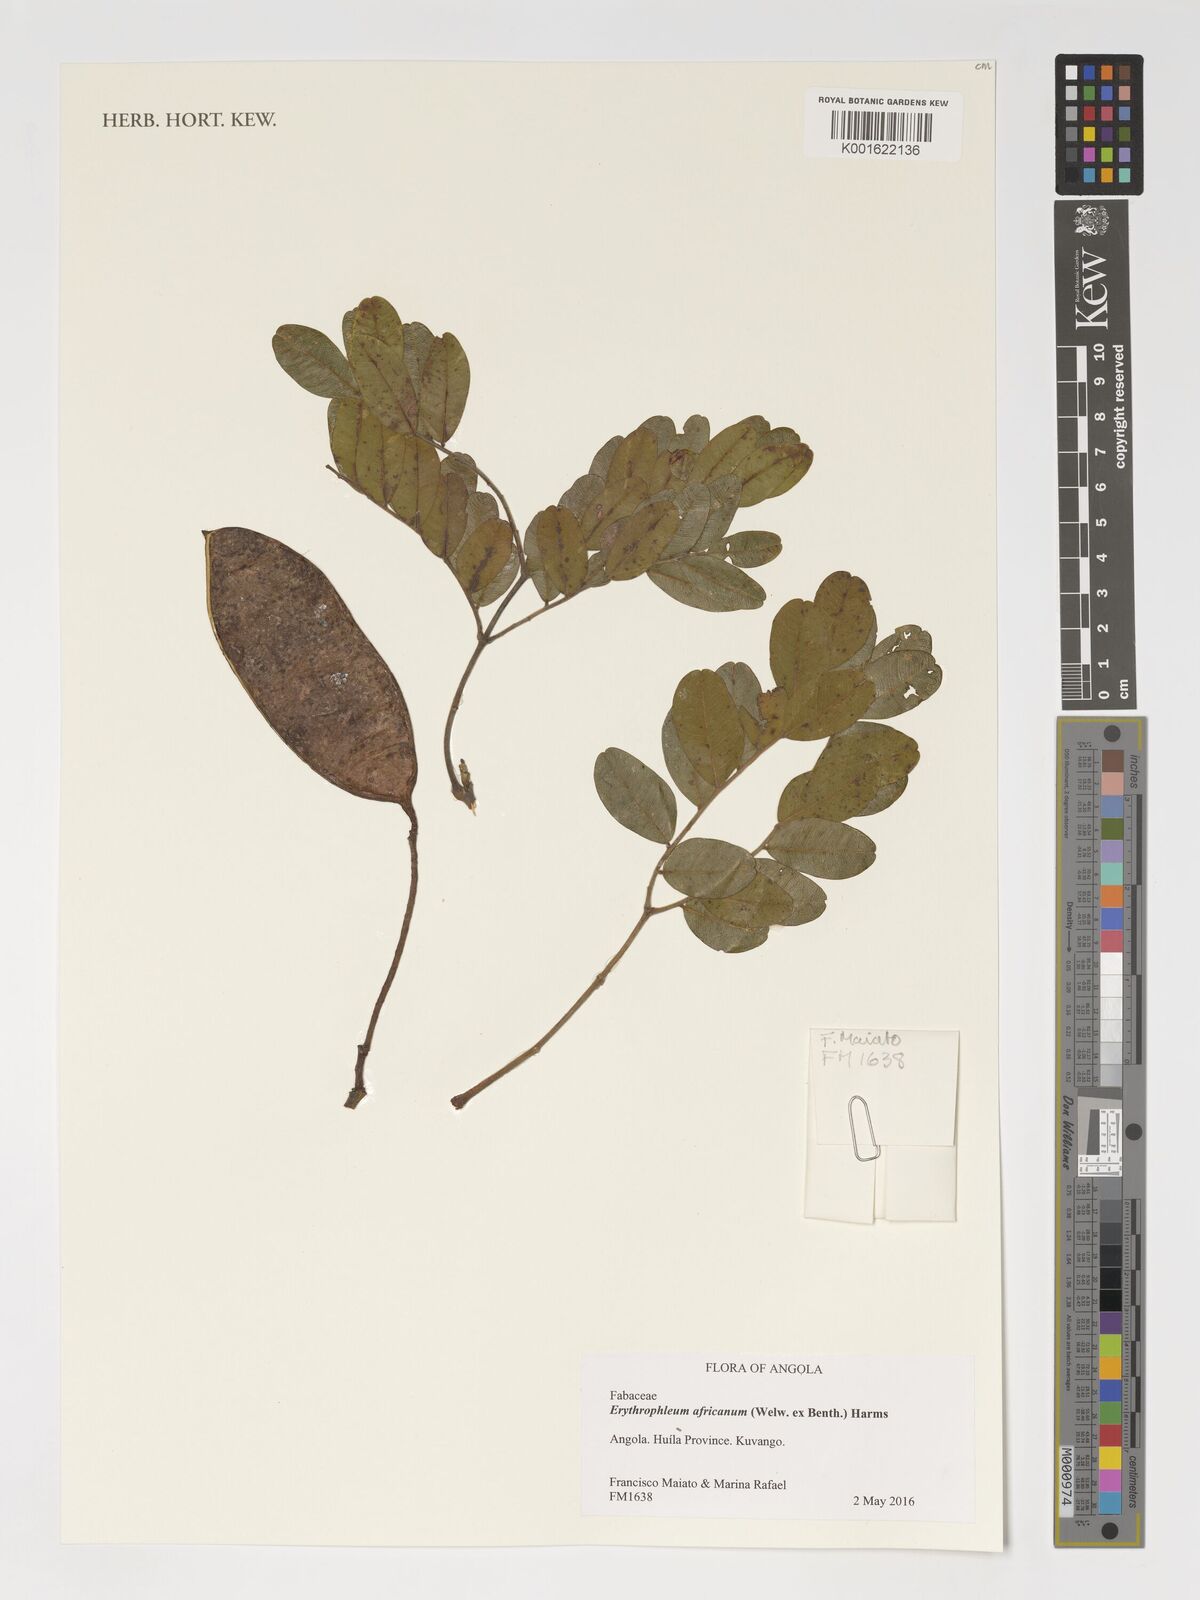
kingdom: Plantae
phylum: Tracheophyta
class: Magnoliopsida
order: Fabales
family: Fabaceae
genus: Erythrophleum
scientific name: Erythrophleum africanum
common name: African blackwood
